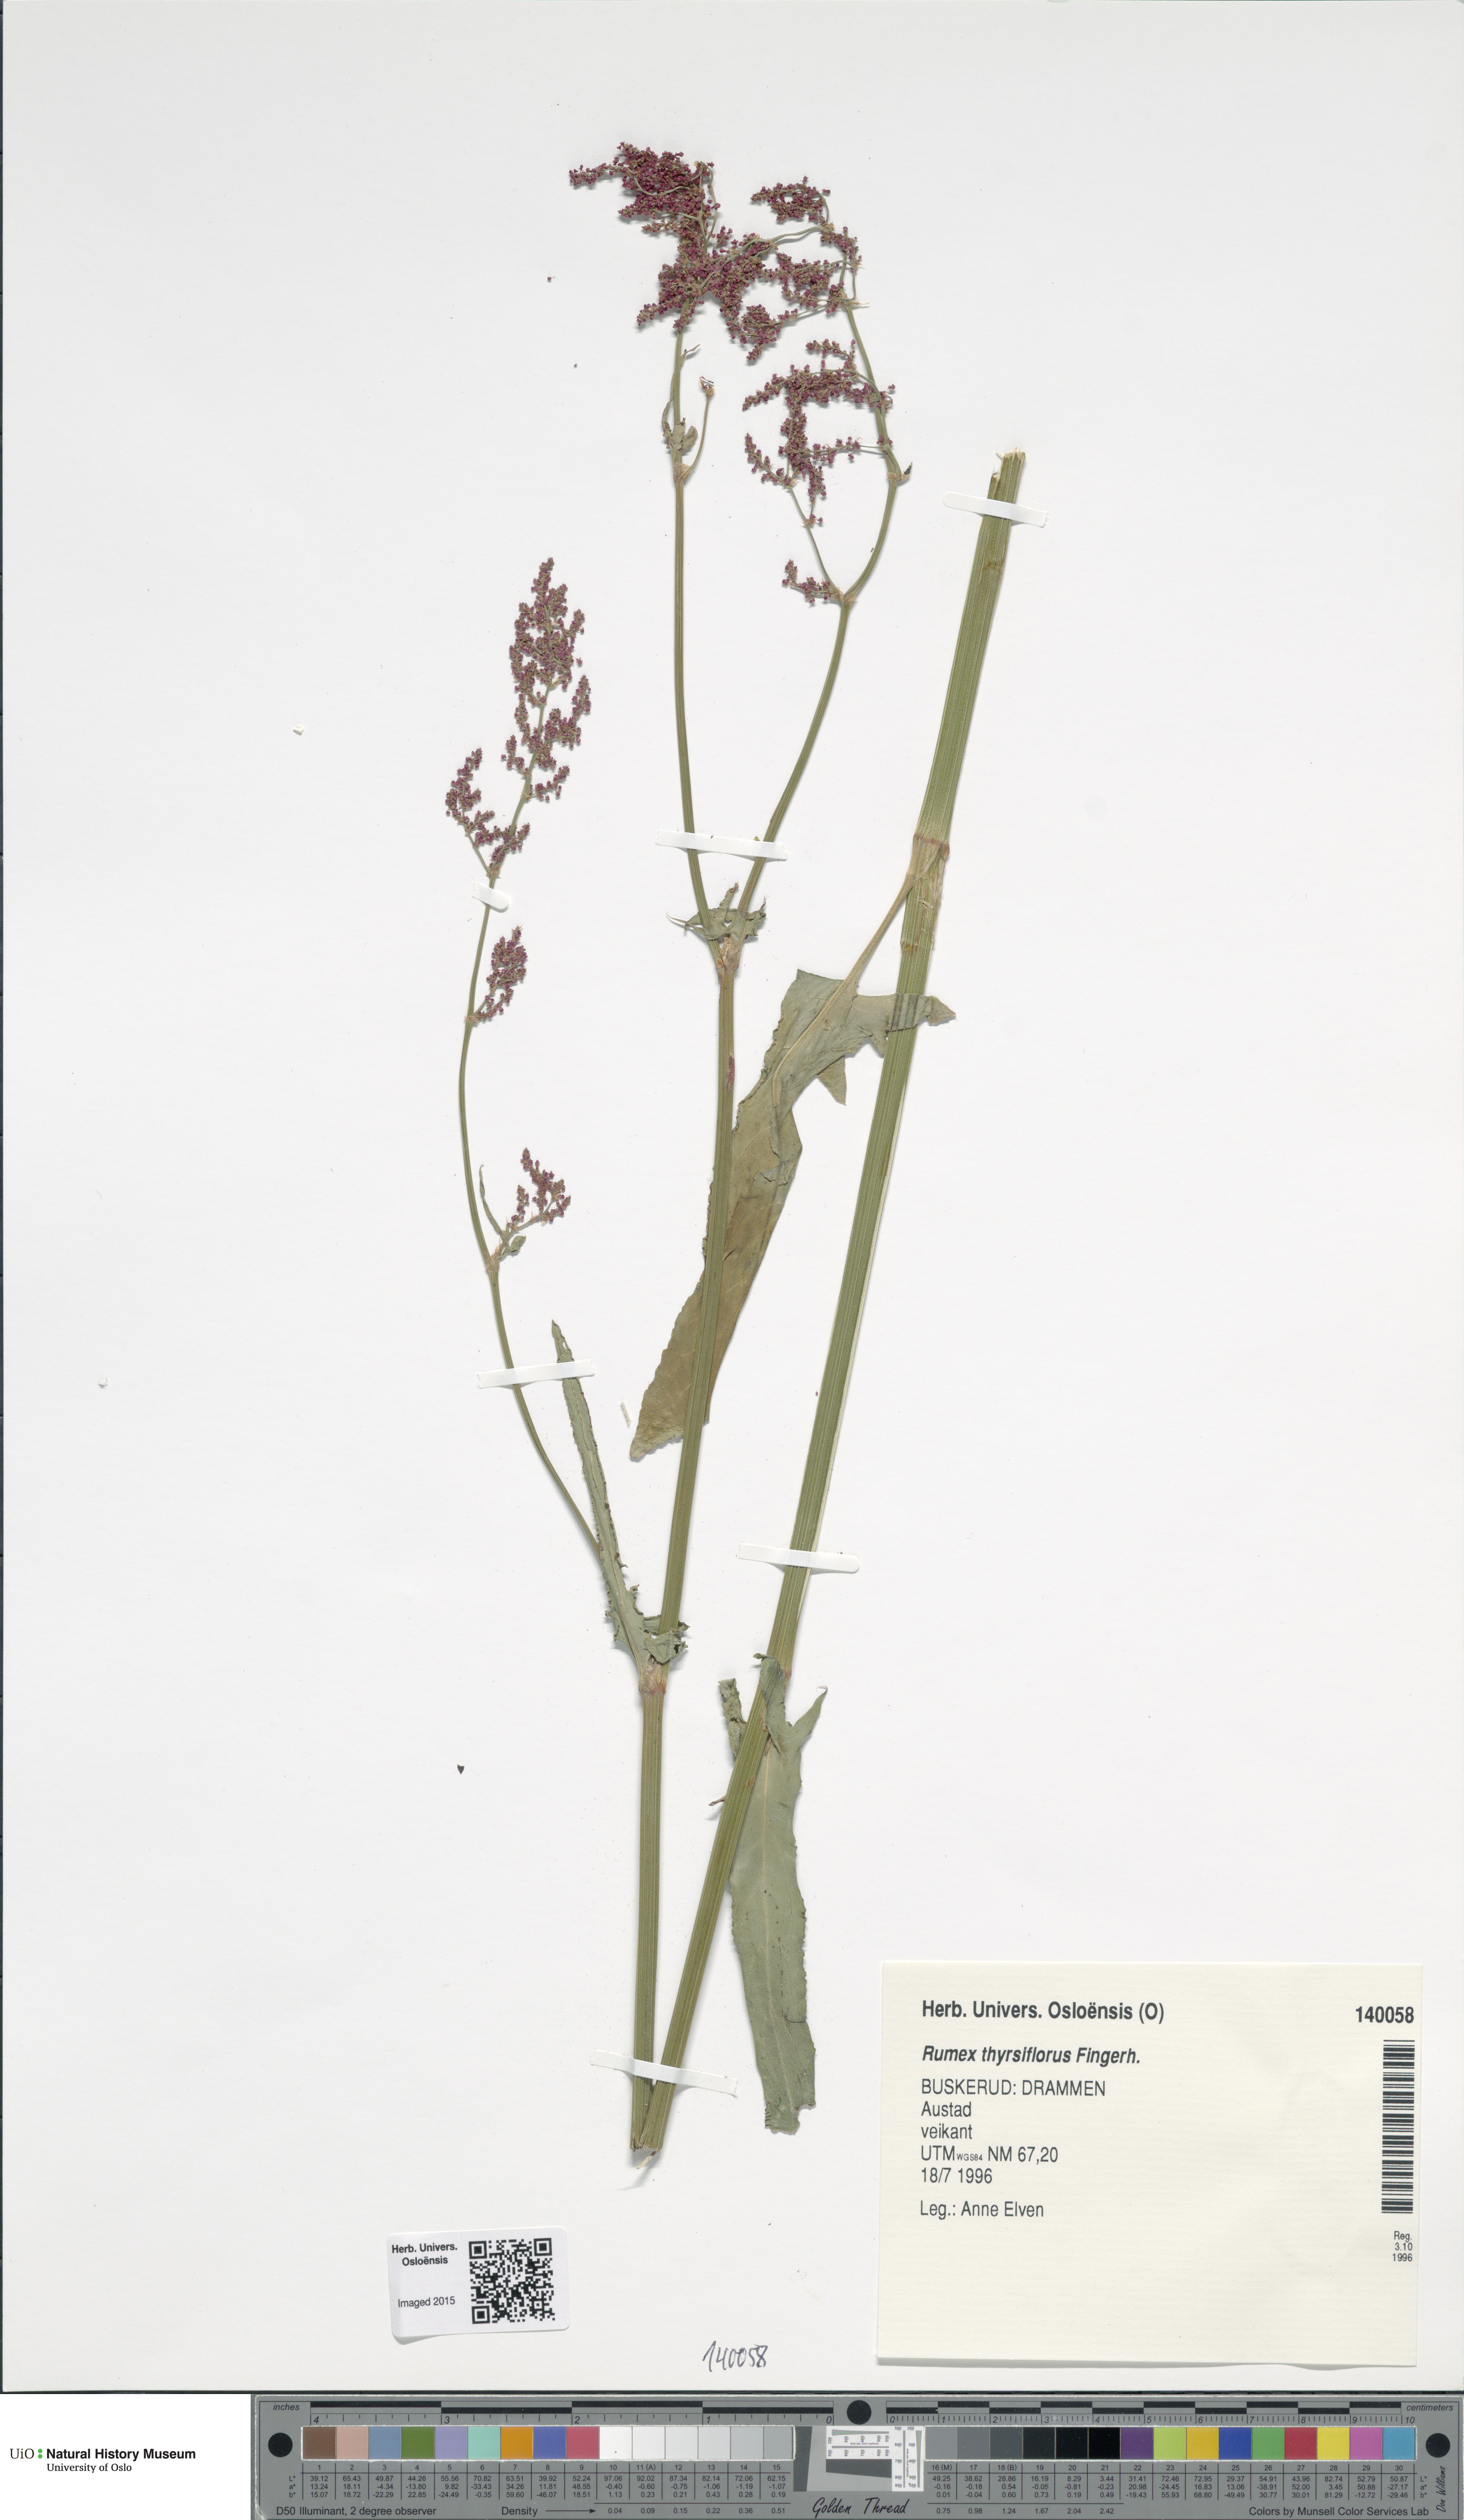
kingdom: Plantae
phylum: Tracheophyta
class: Magnoliopsida
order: Caryophyllales
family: Polygonaceae
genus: Rumex
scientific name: Rumex thyrsiflorus
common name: Garden sorrel
